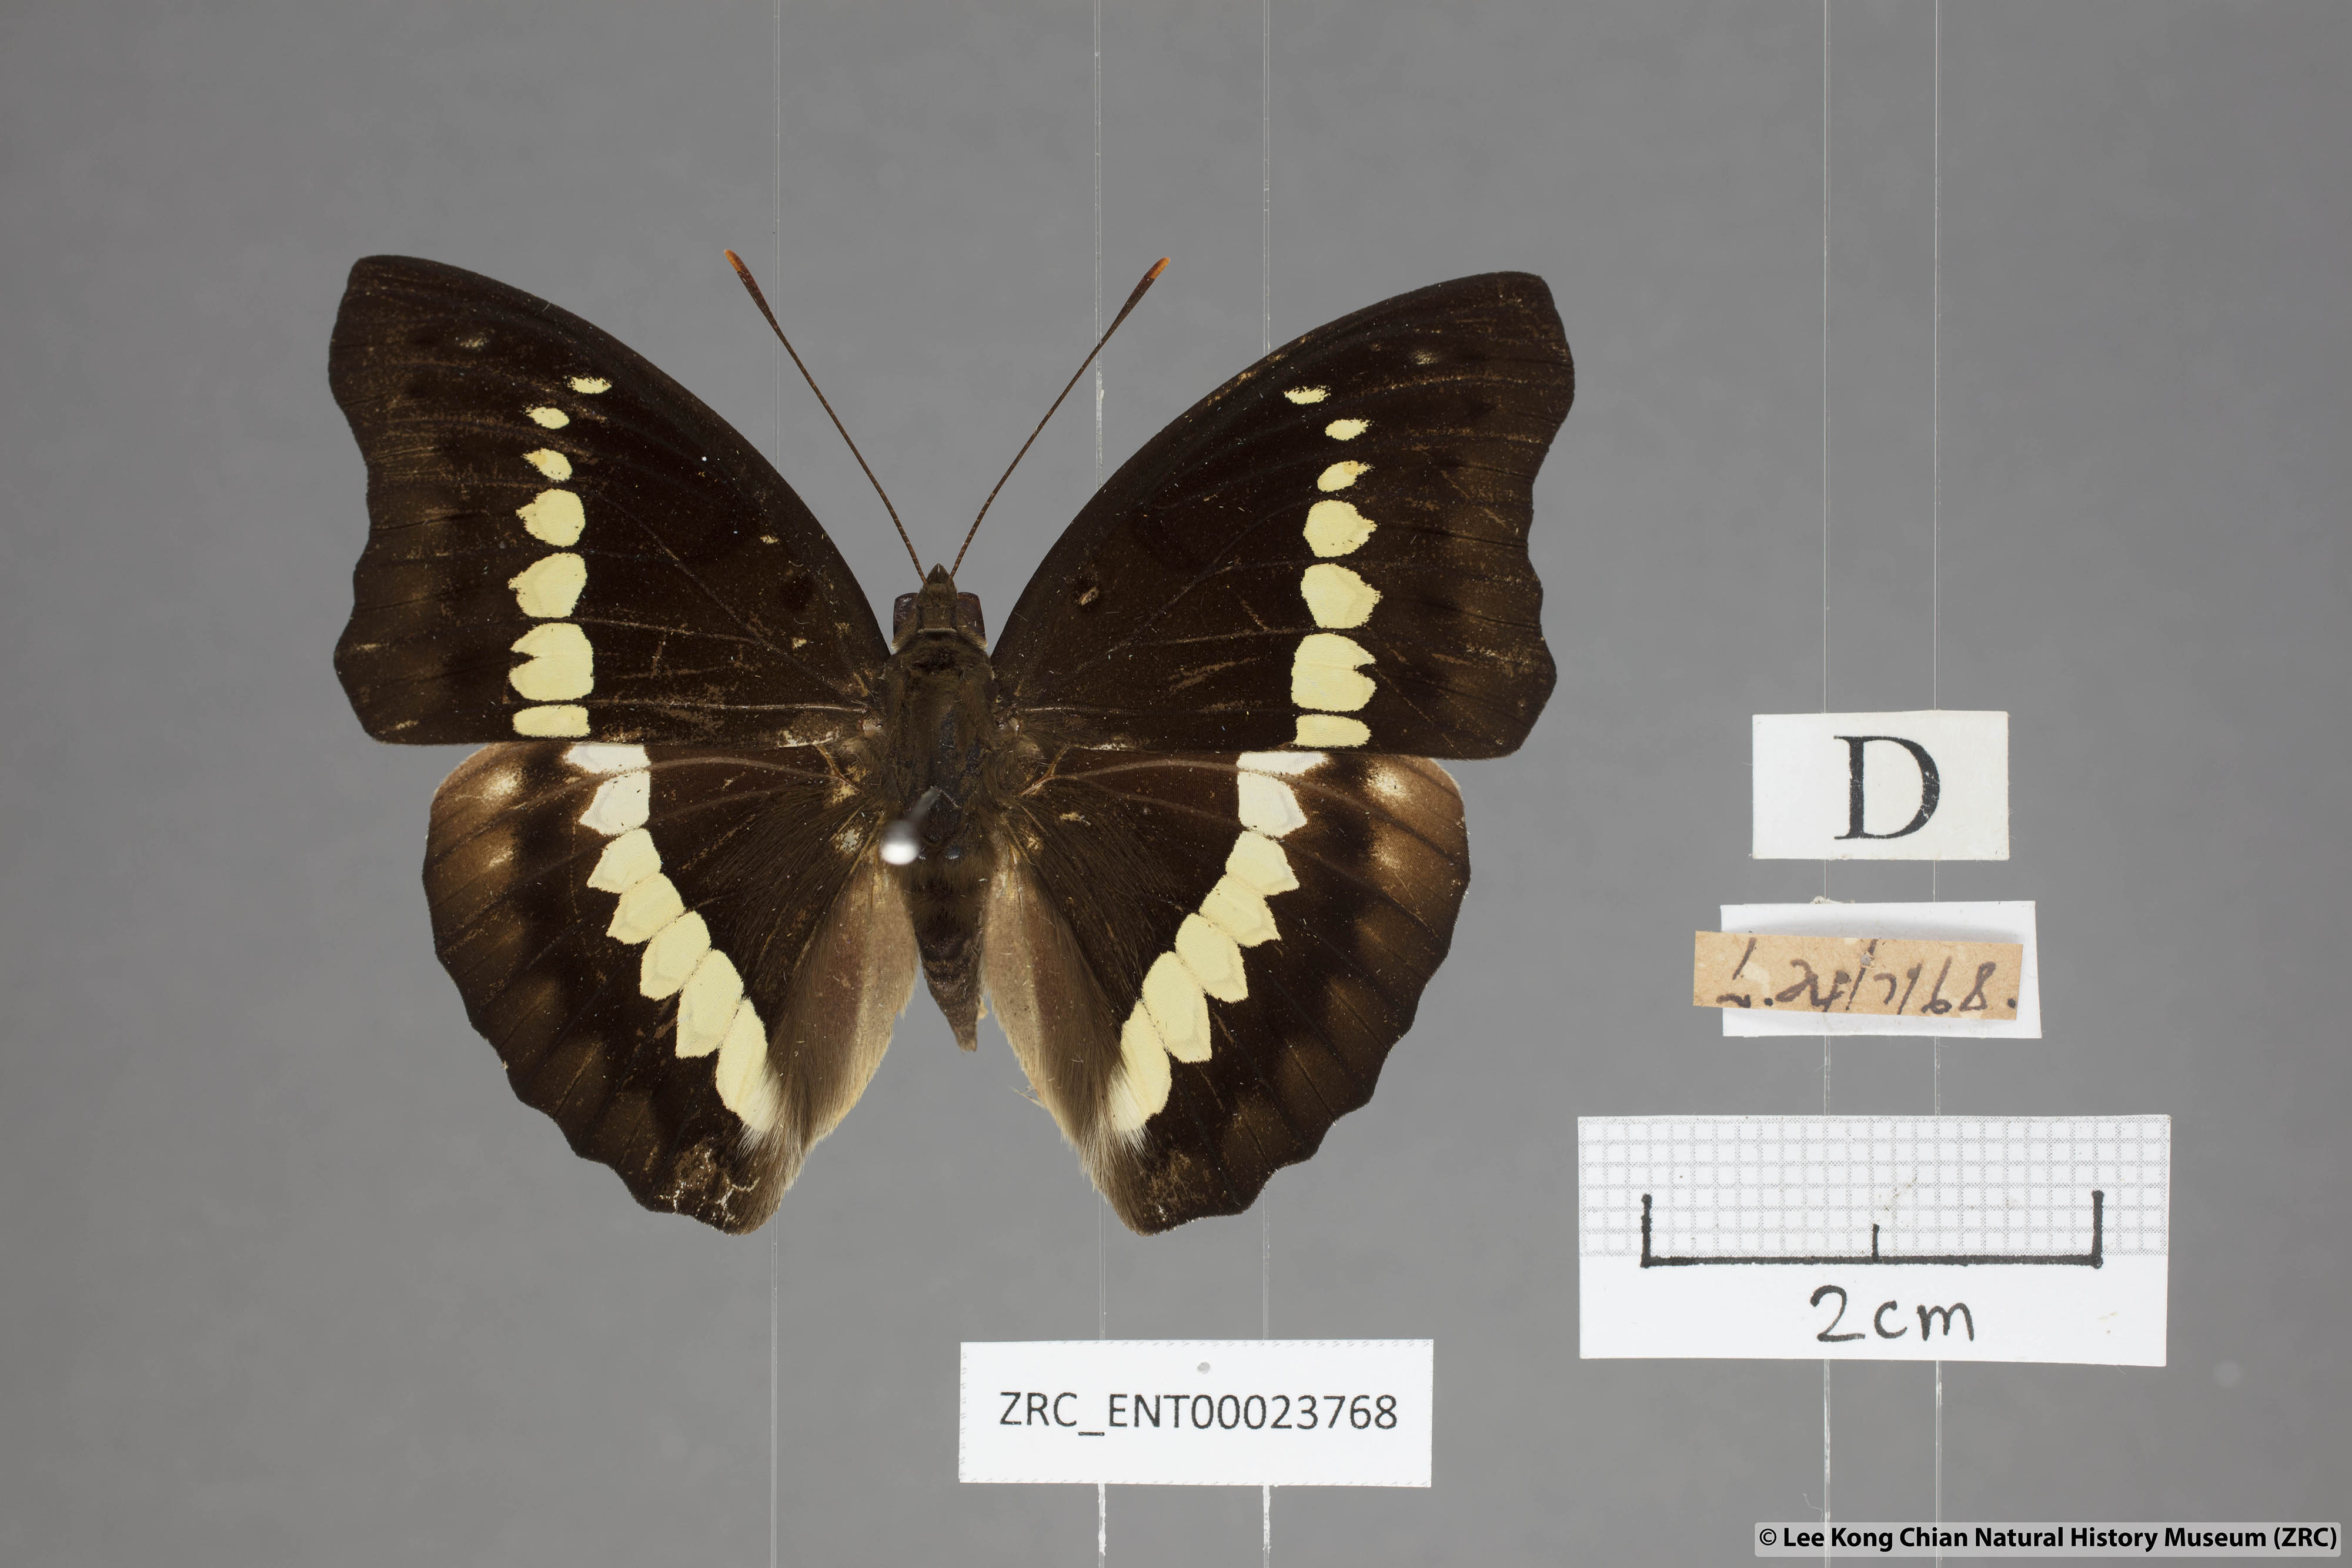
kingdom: Animalia
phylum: Arthropoda
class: Insecta
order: Lepidoptera
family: Nymphalidae
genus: Euthalia
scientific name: Euthalia Bassarona teuta
